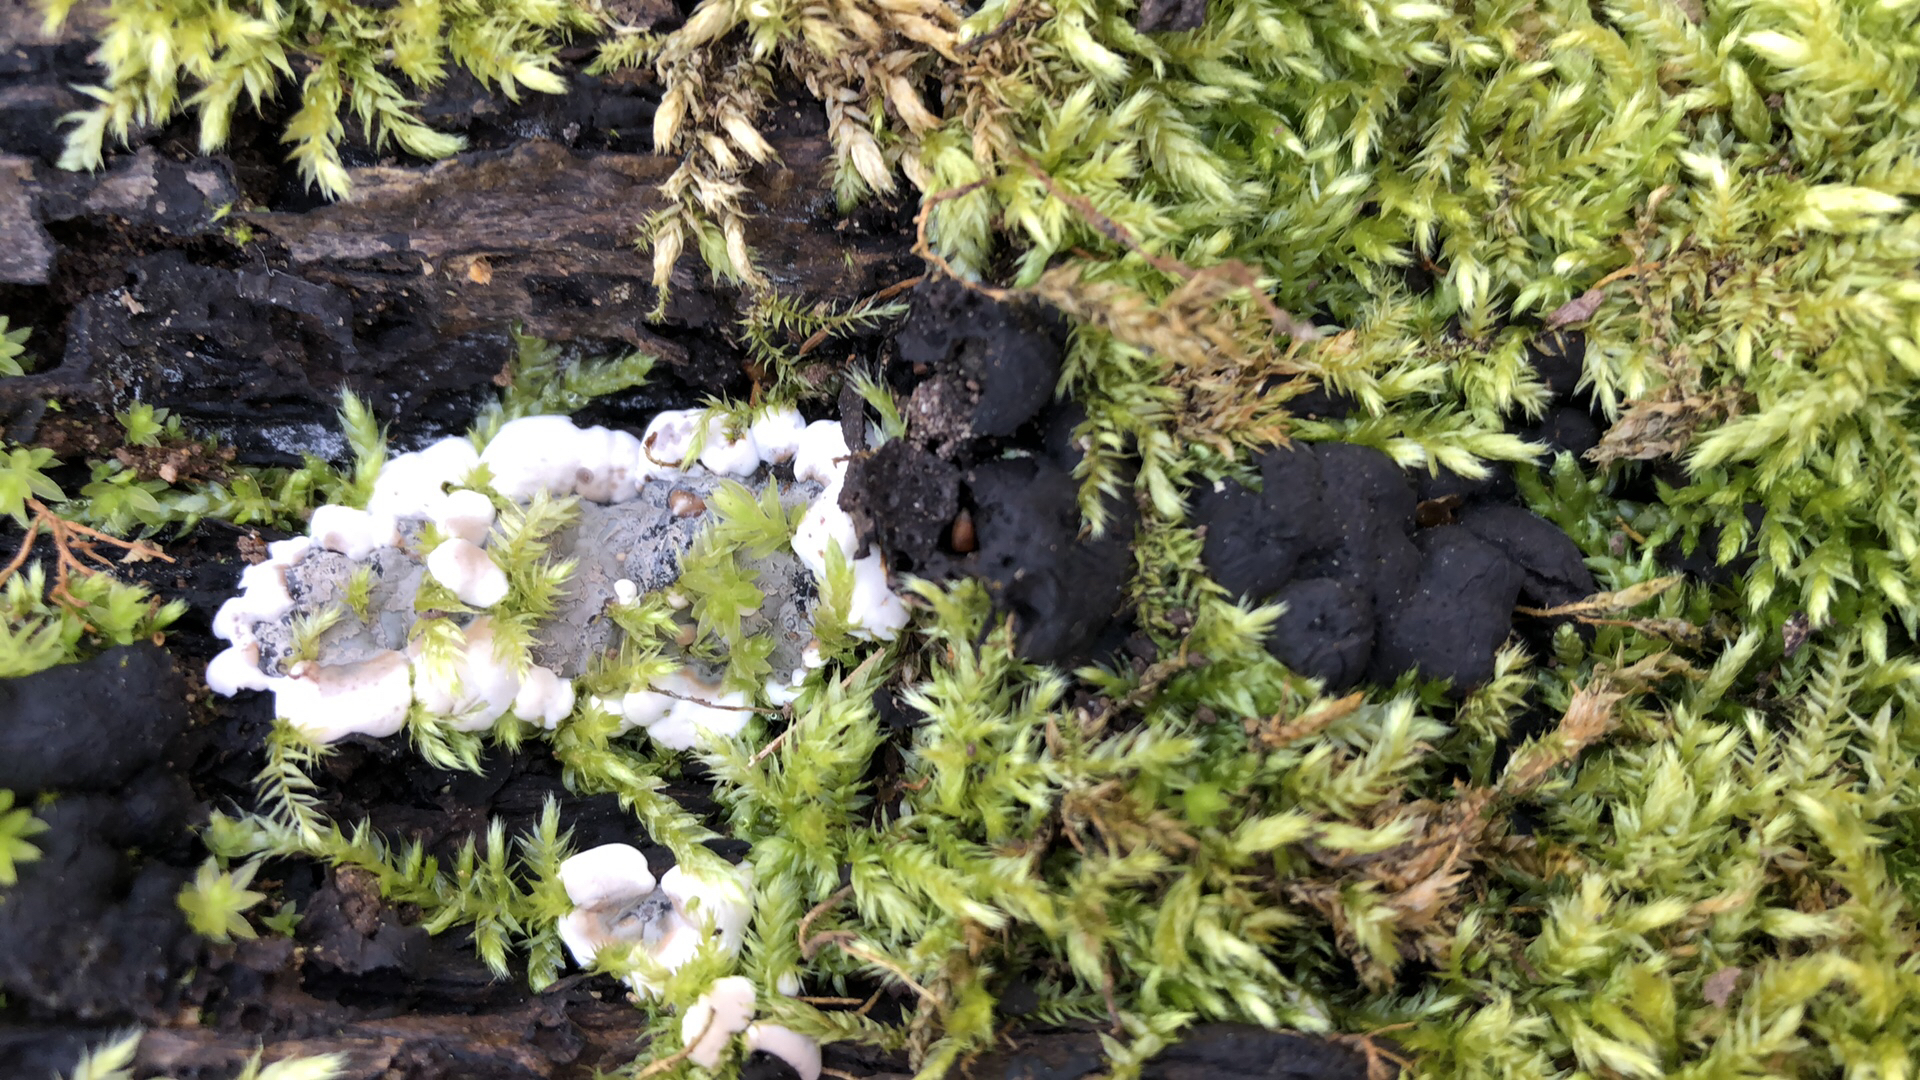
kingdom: Fungi
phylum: Ascomycota
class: Sordariomycetes
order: Xylariales
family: Xylariaceae
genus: Kretzschmaria
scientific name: Kretzschmaria deusta
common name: stor kulsvamp
